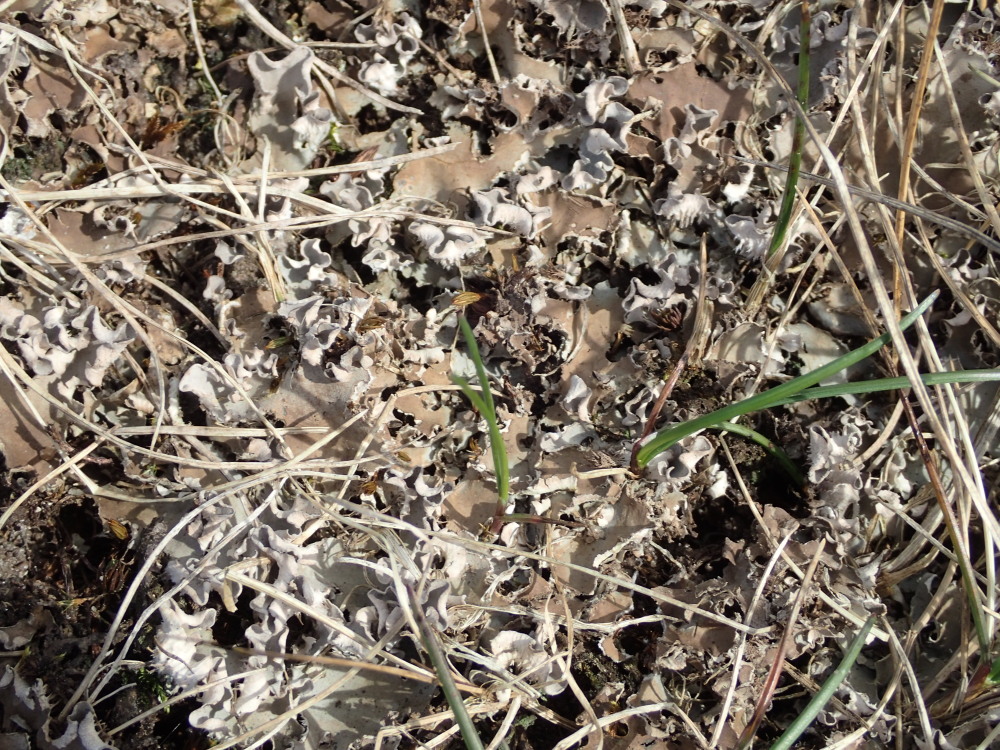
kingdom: Fungi
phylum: Ascomycota
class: Lecanoromycetes
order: Peltigerales
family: Peltigeraceae
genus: Peltigera
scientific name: Peltigera rufescens
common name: brun skjoldlav
